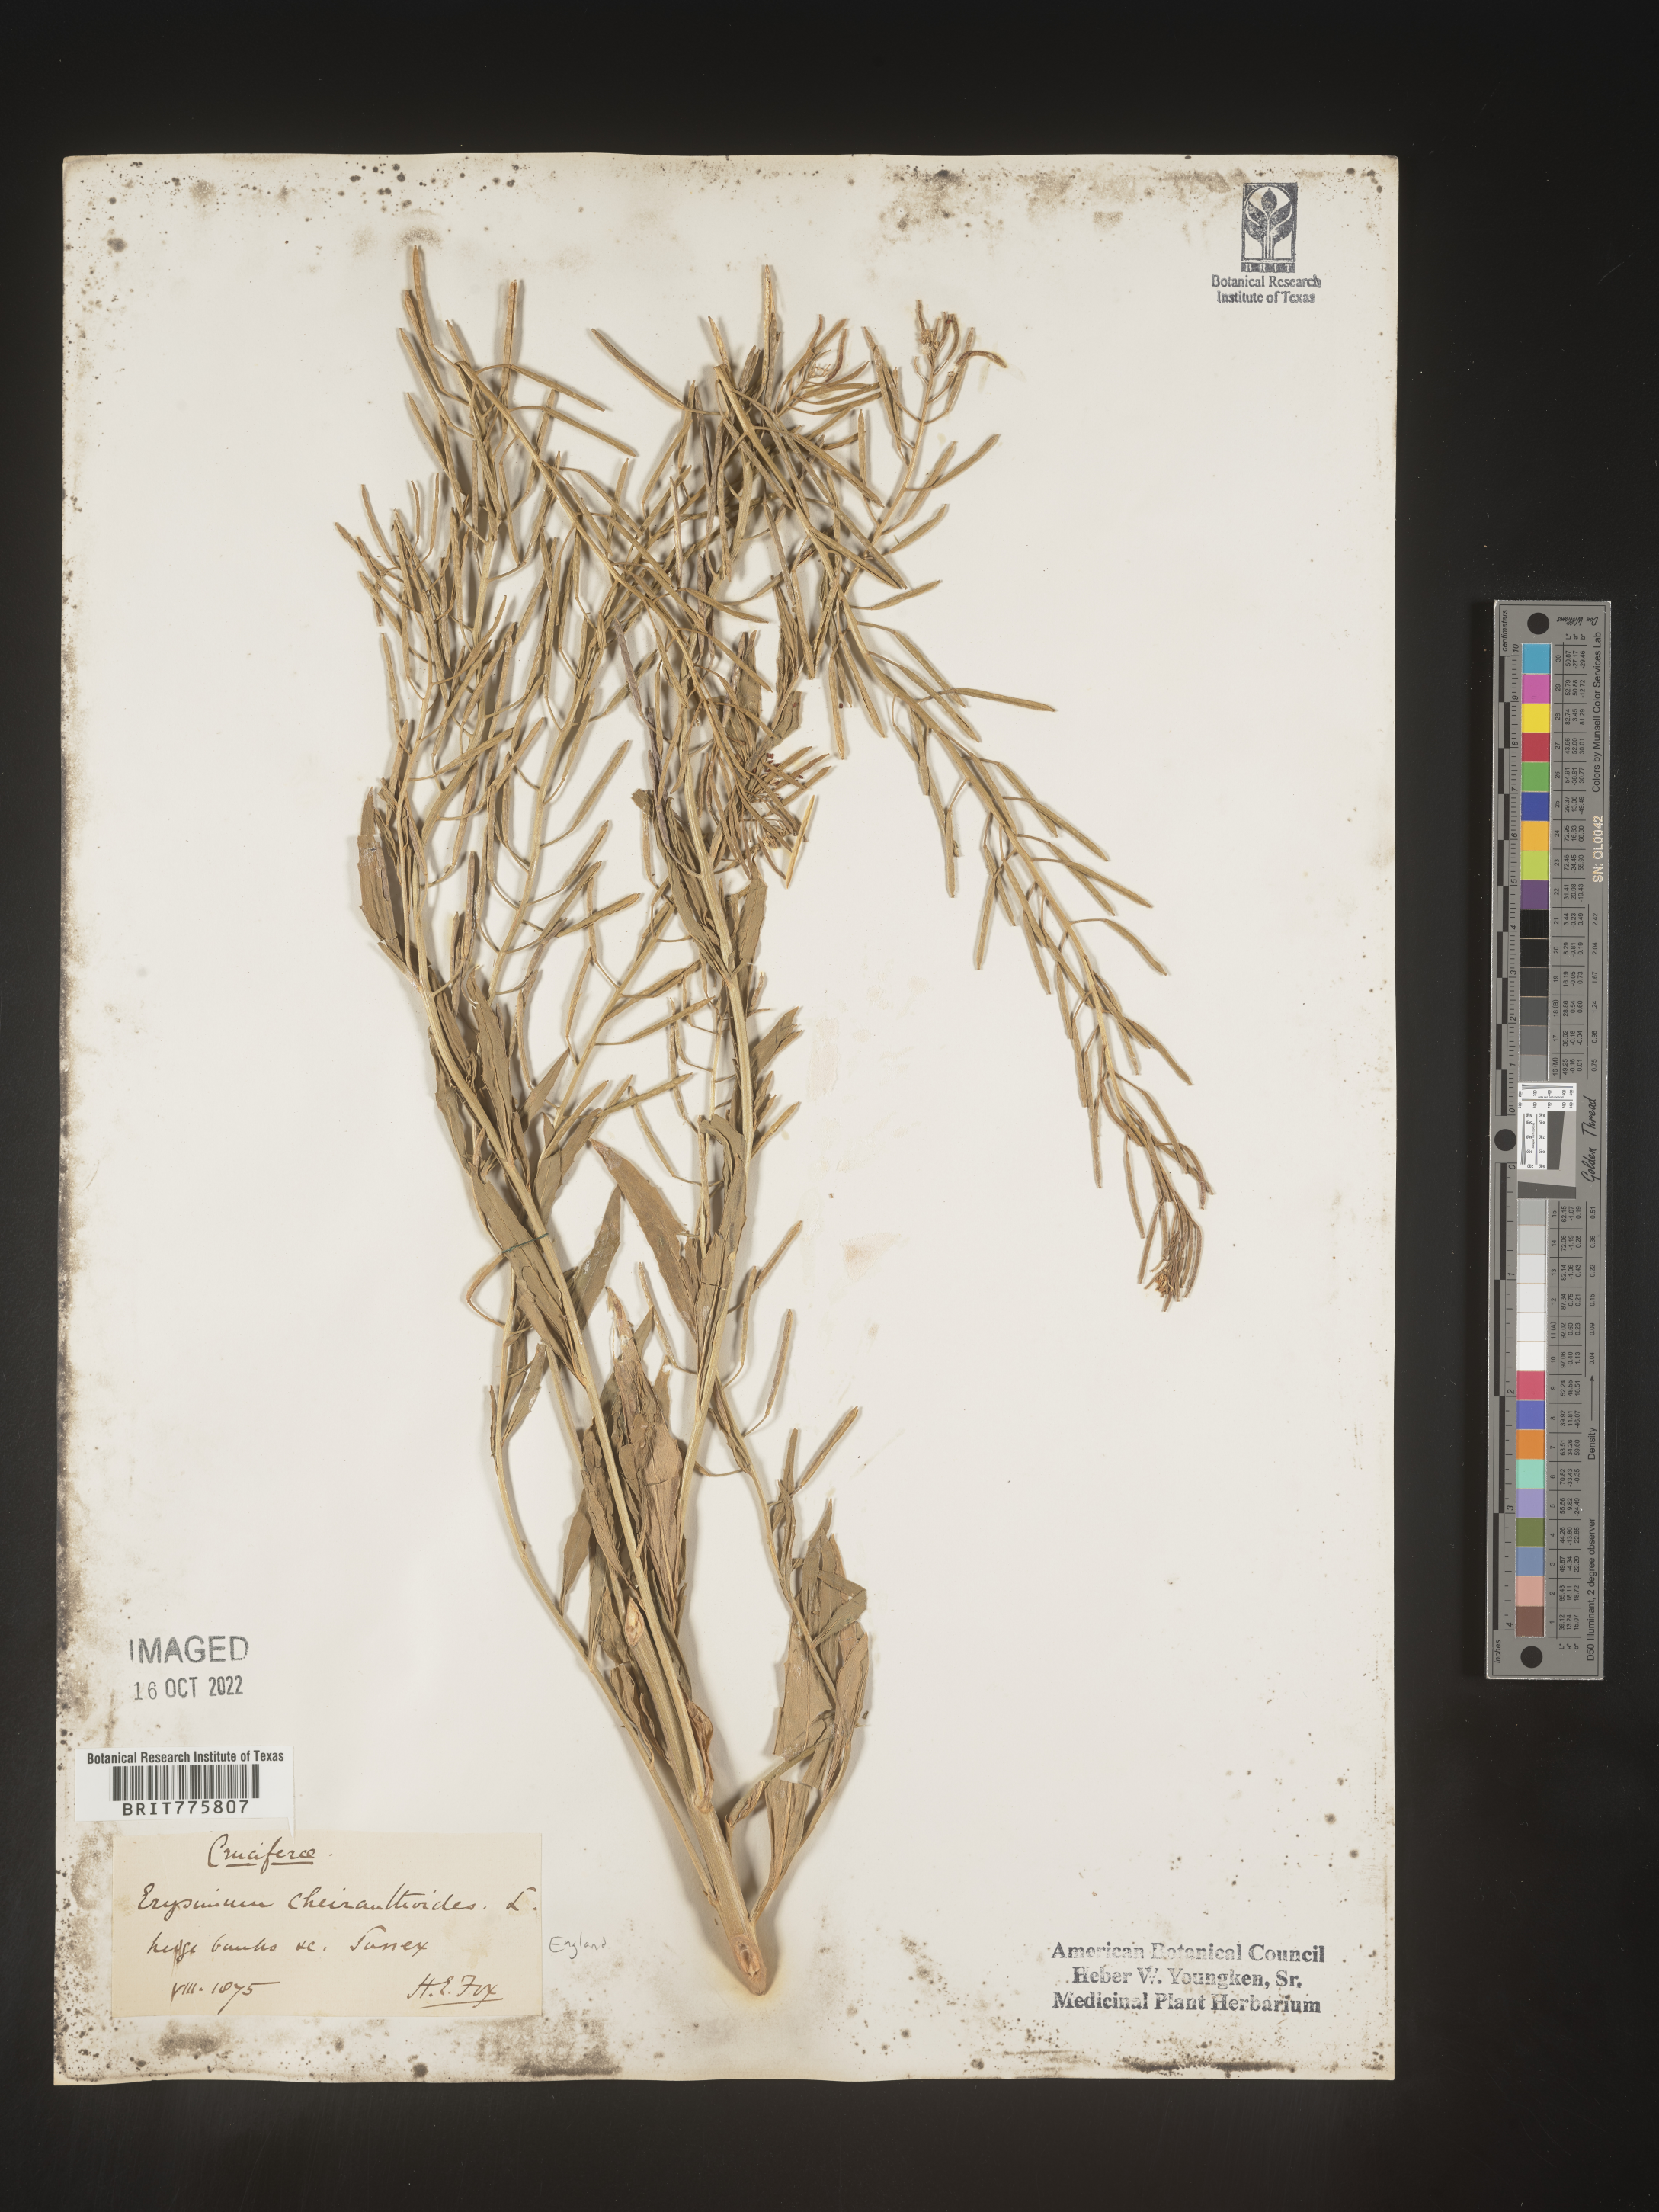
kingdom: Plantae
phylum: Tracheophyta
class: Magnoliopsida
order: Brassicales
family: Brassicaceae
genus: Erysimum
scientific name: Erysimum
